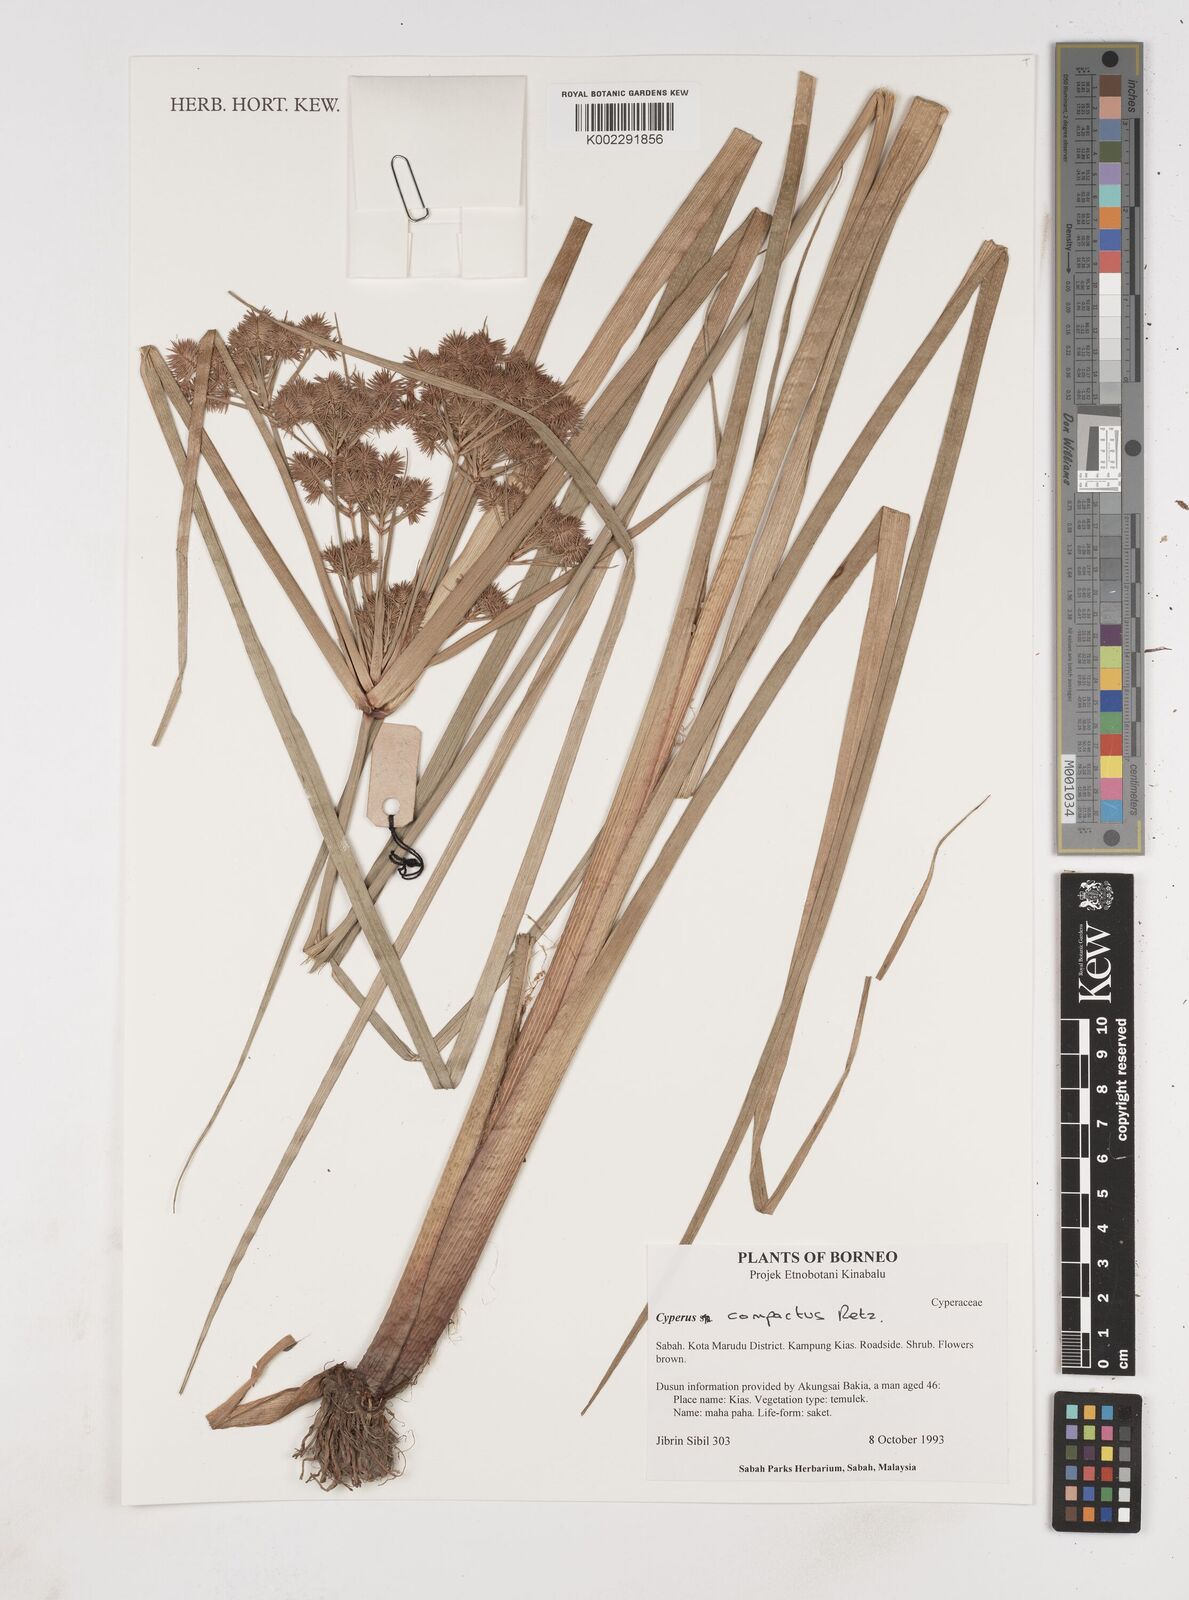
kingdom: Plantae
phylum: Tracheophyta
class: Liliopsida
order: Poales
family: Cyperaceae
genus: Cyperus
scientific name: Cyperus compactus
